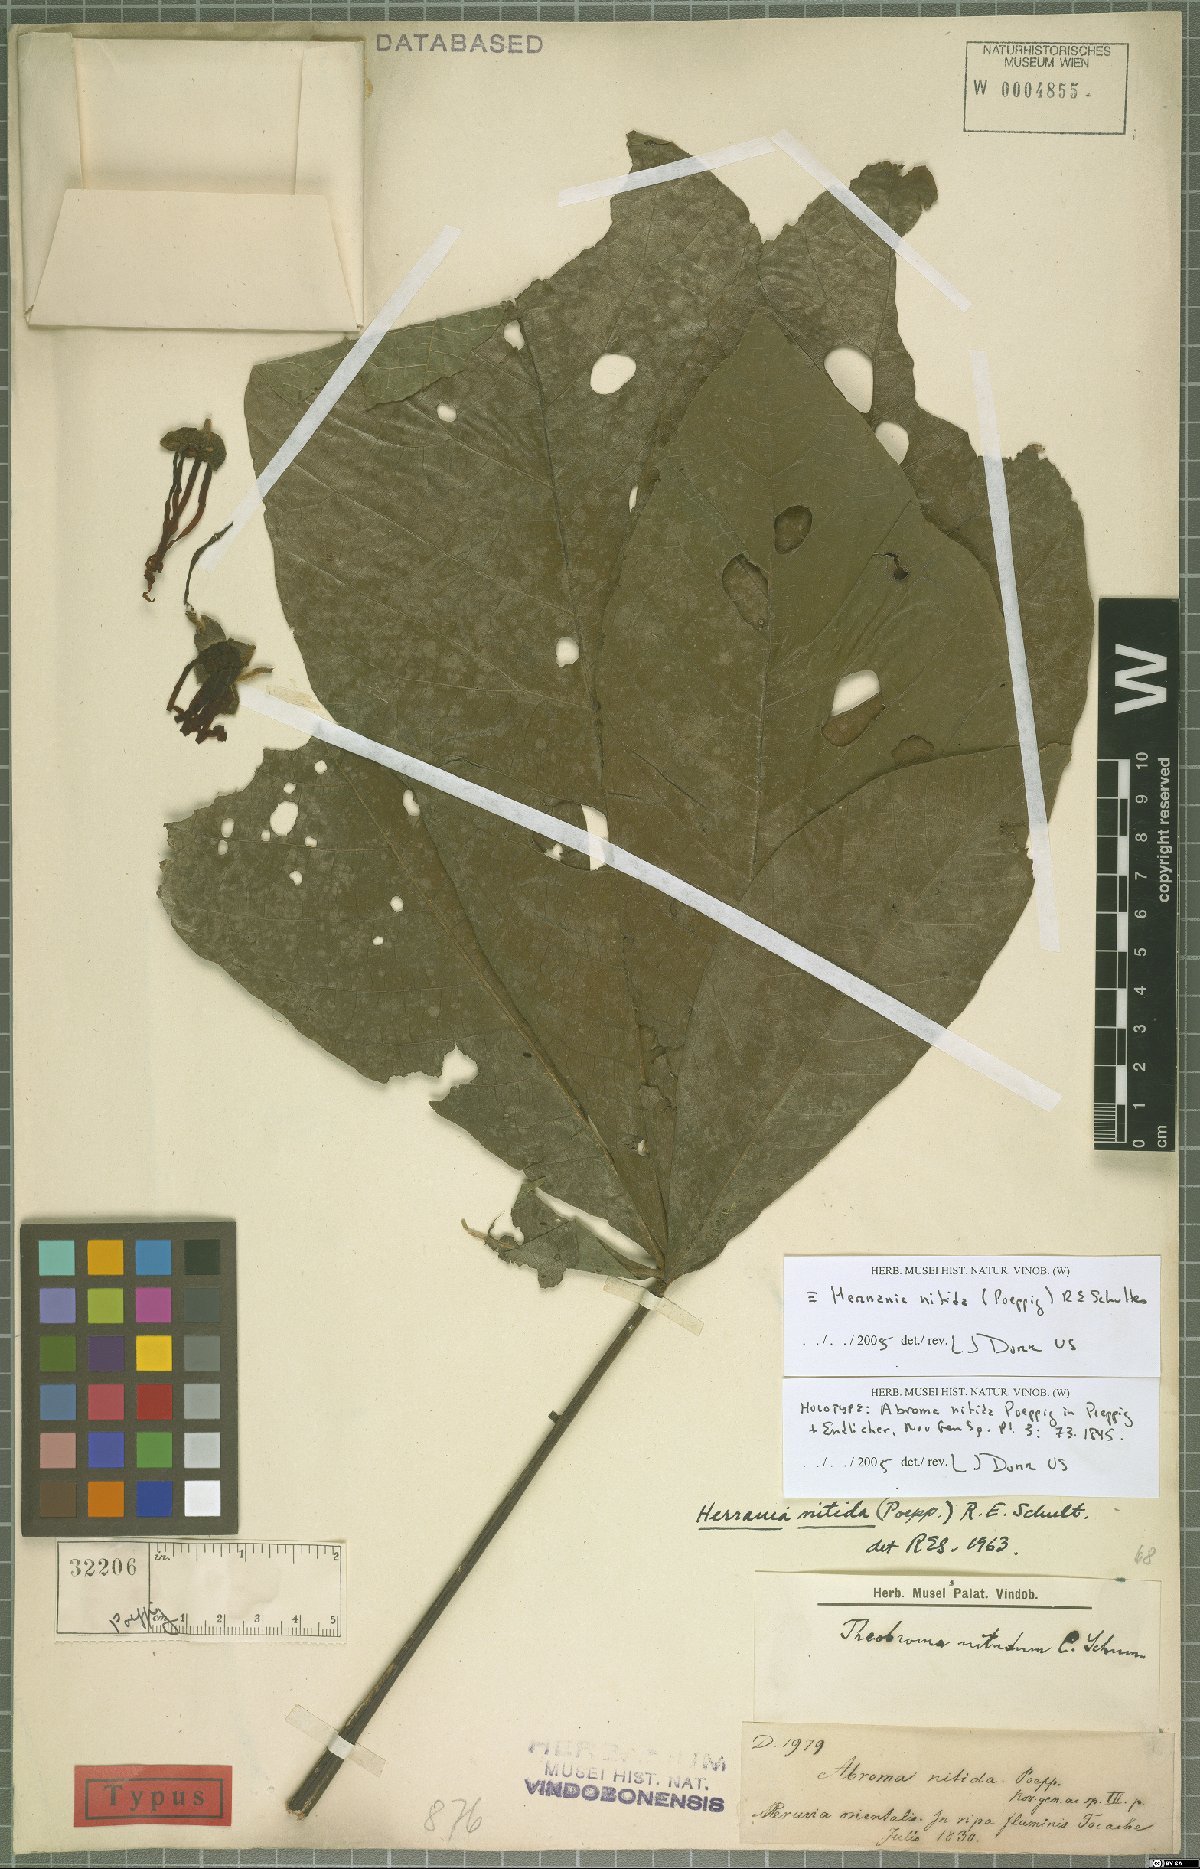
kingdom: Plantae
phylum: Tracheophyta
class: Magnoliopsida
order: Malvales
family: Malvaceae
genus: Herrania
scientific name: Herrania nitida
